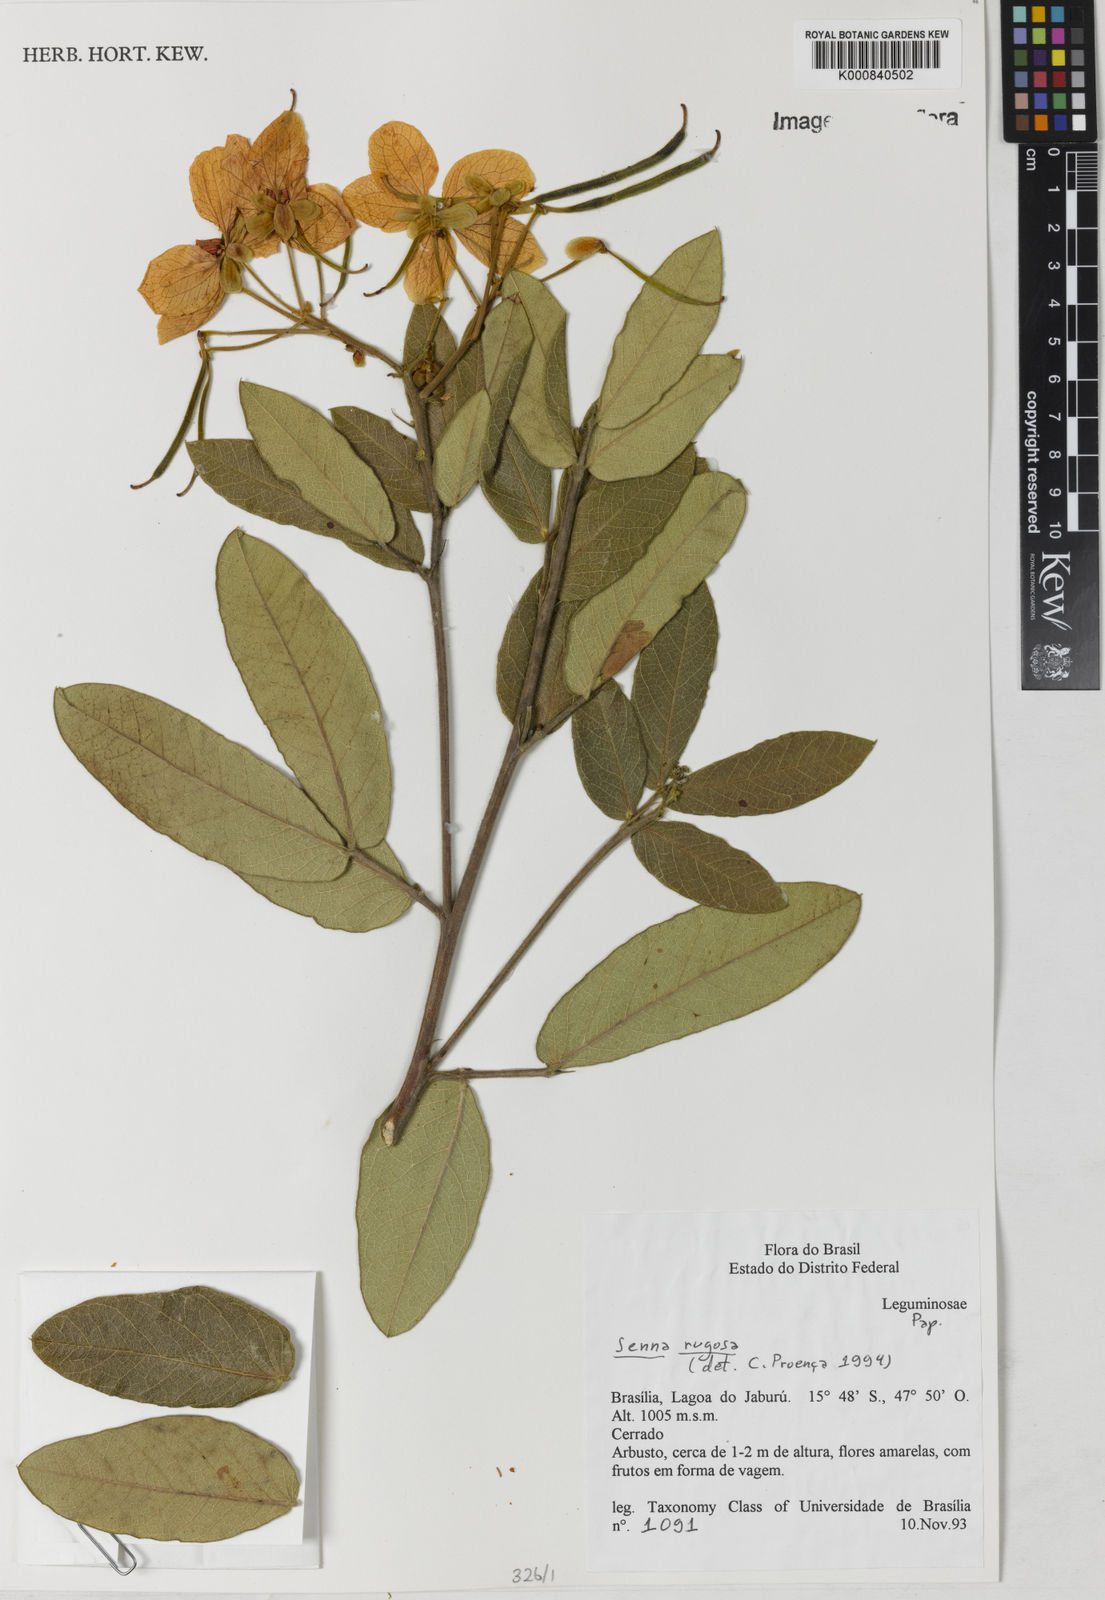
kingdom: Plantae
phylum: Tracheophyta
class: Magnoliopsida
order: Fabales
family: Fabaceae
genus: Senna
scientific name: Senna rugosa
